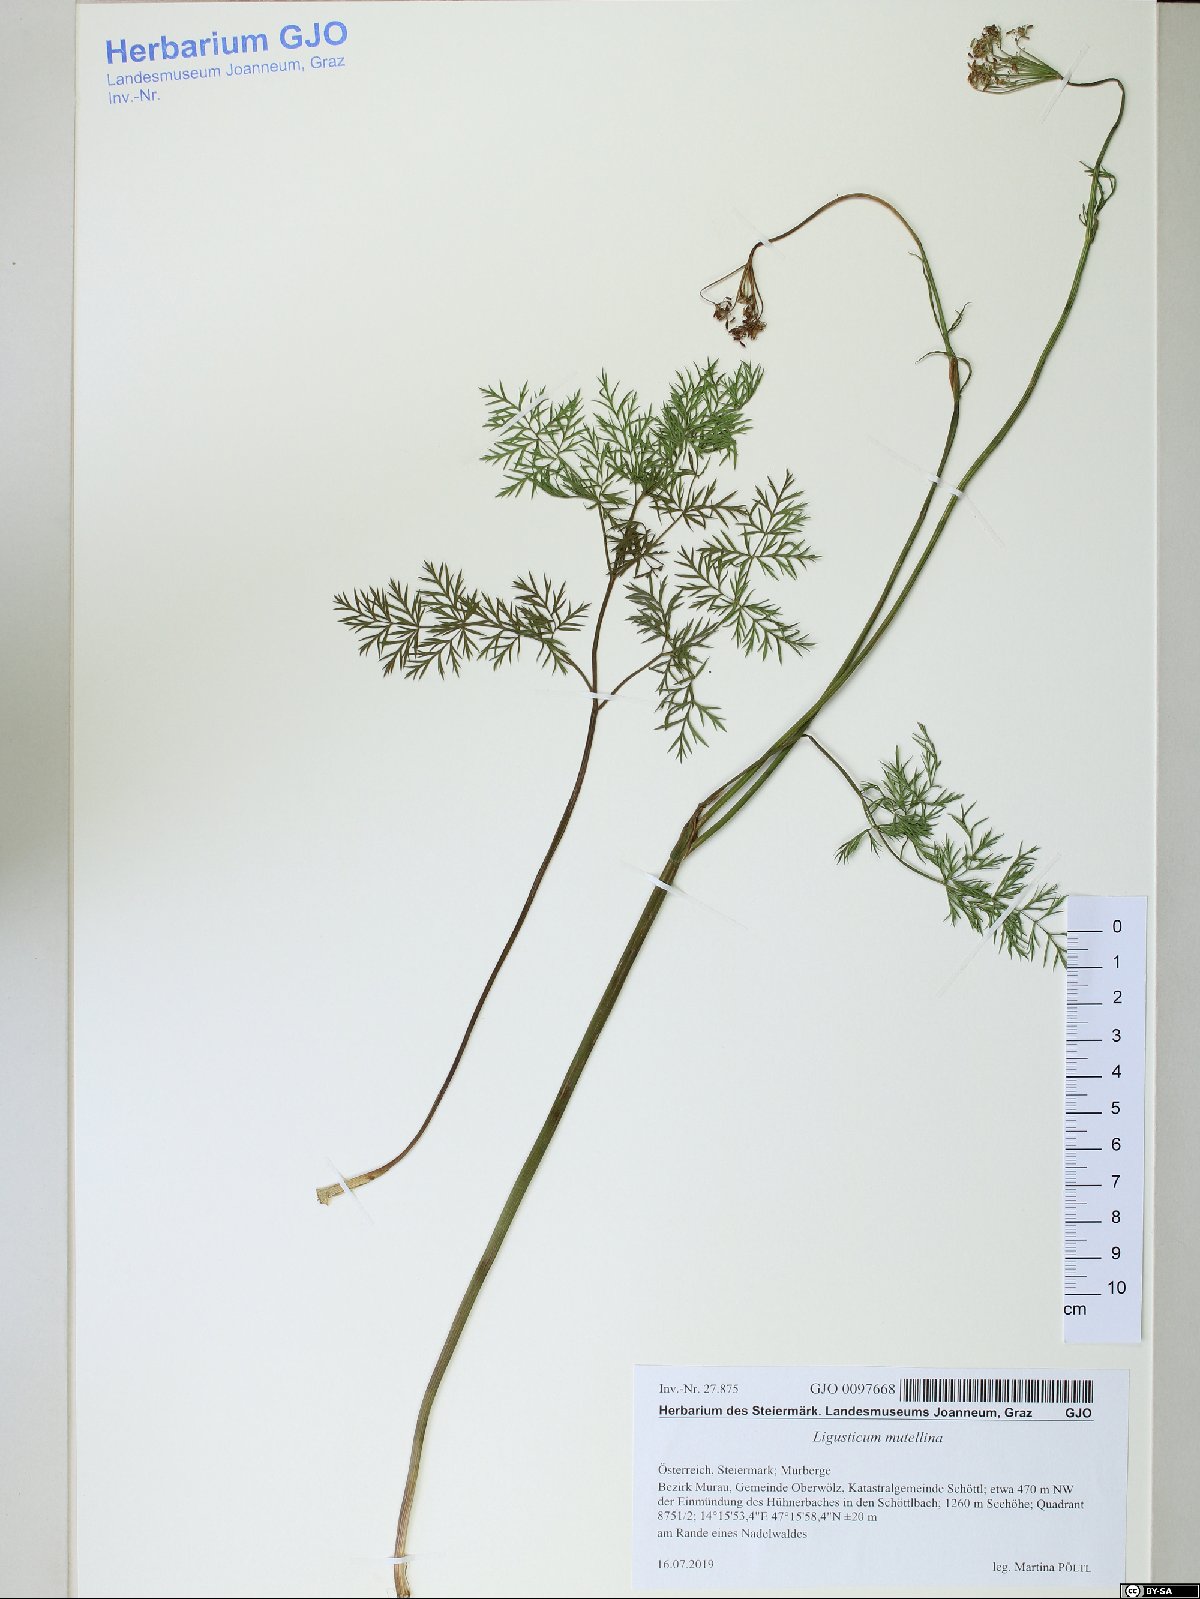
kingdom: Plantae
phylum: Tracheophyta
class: Magnoliopsida
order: Apiales
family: Apiaceae
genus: Mutellina
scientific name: Mutellina adonidifolia
